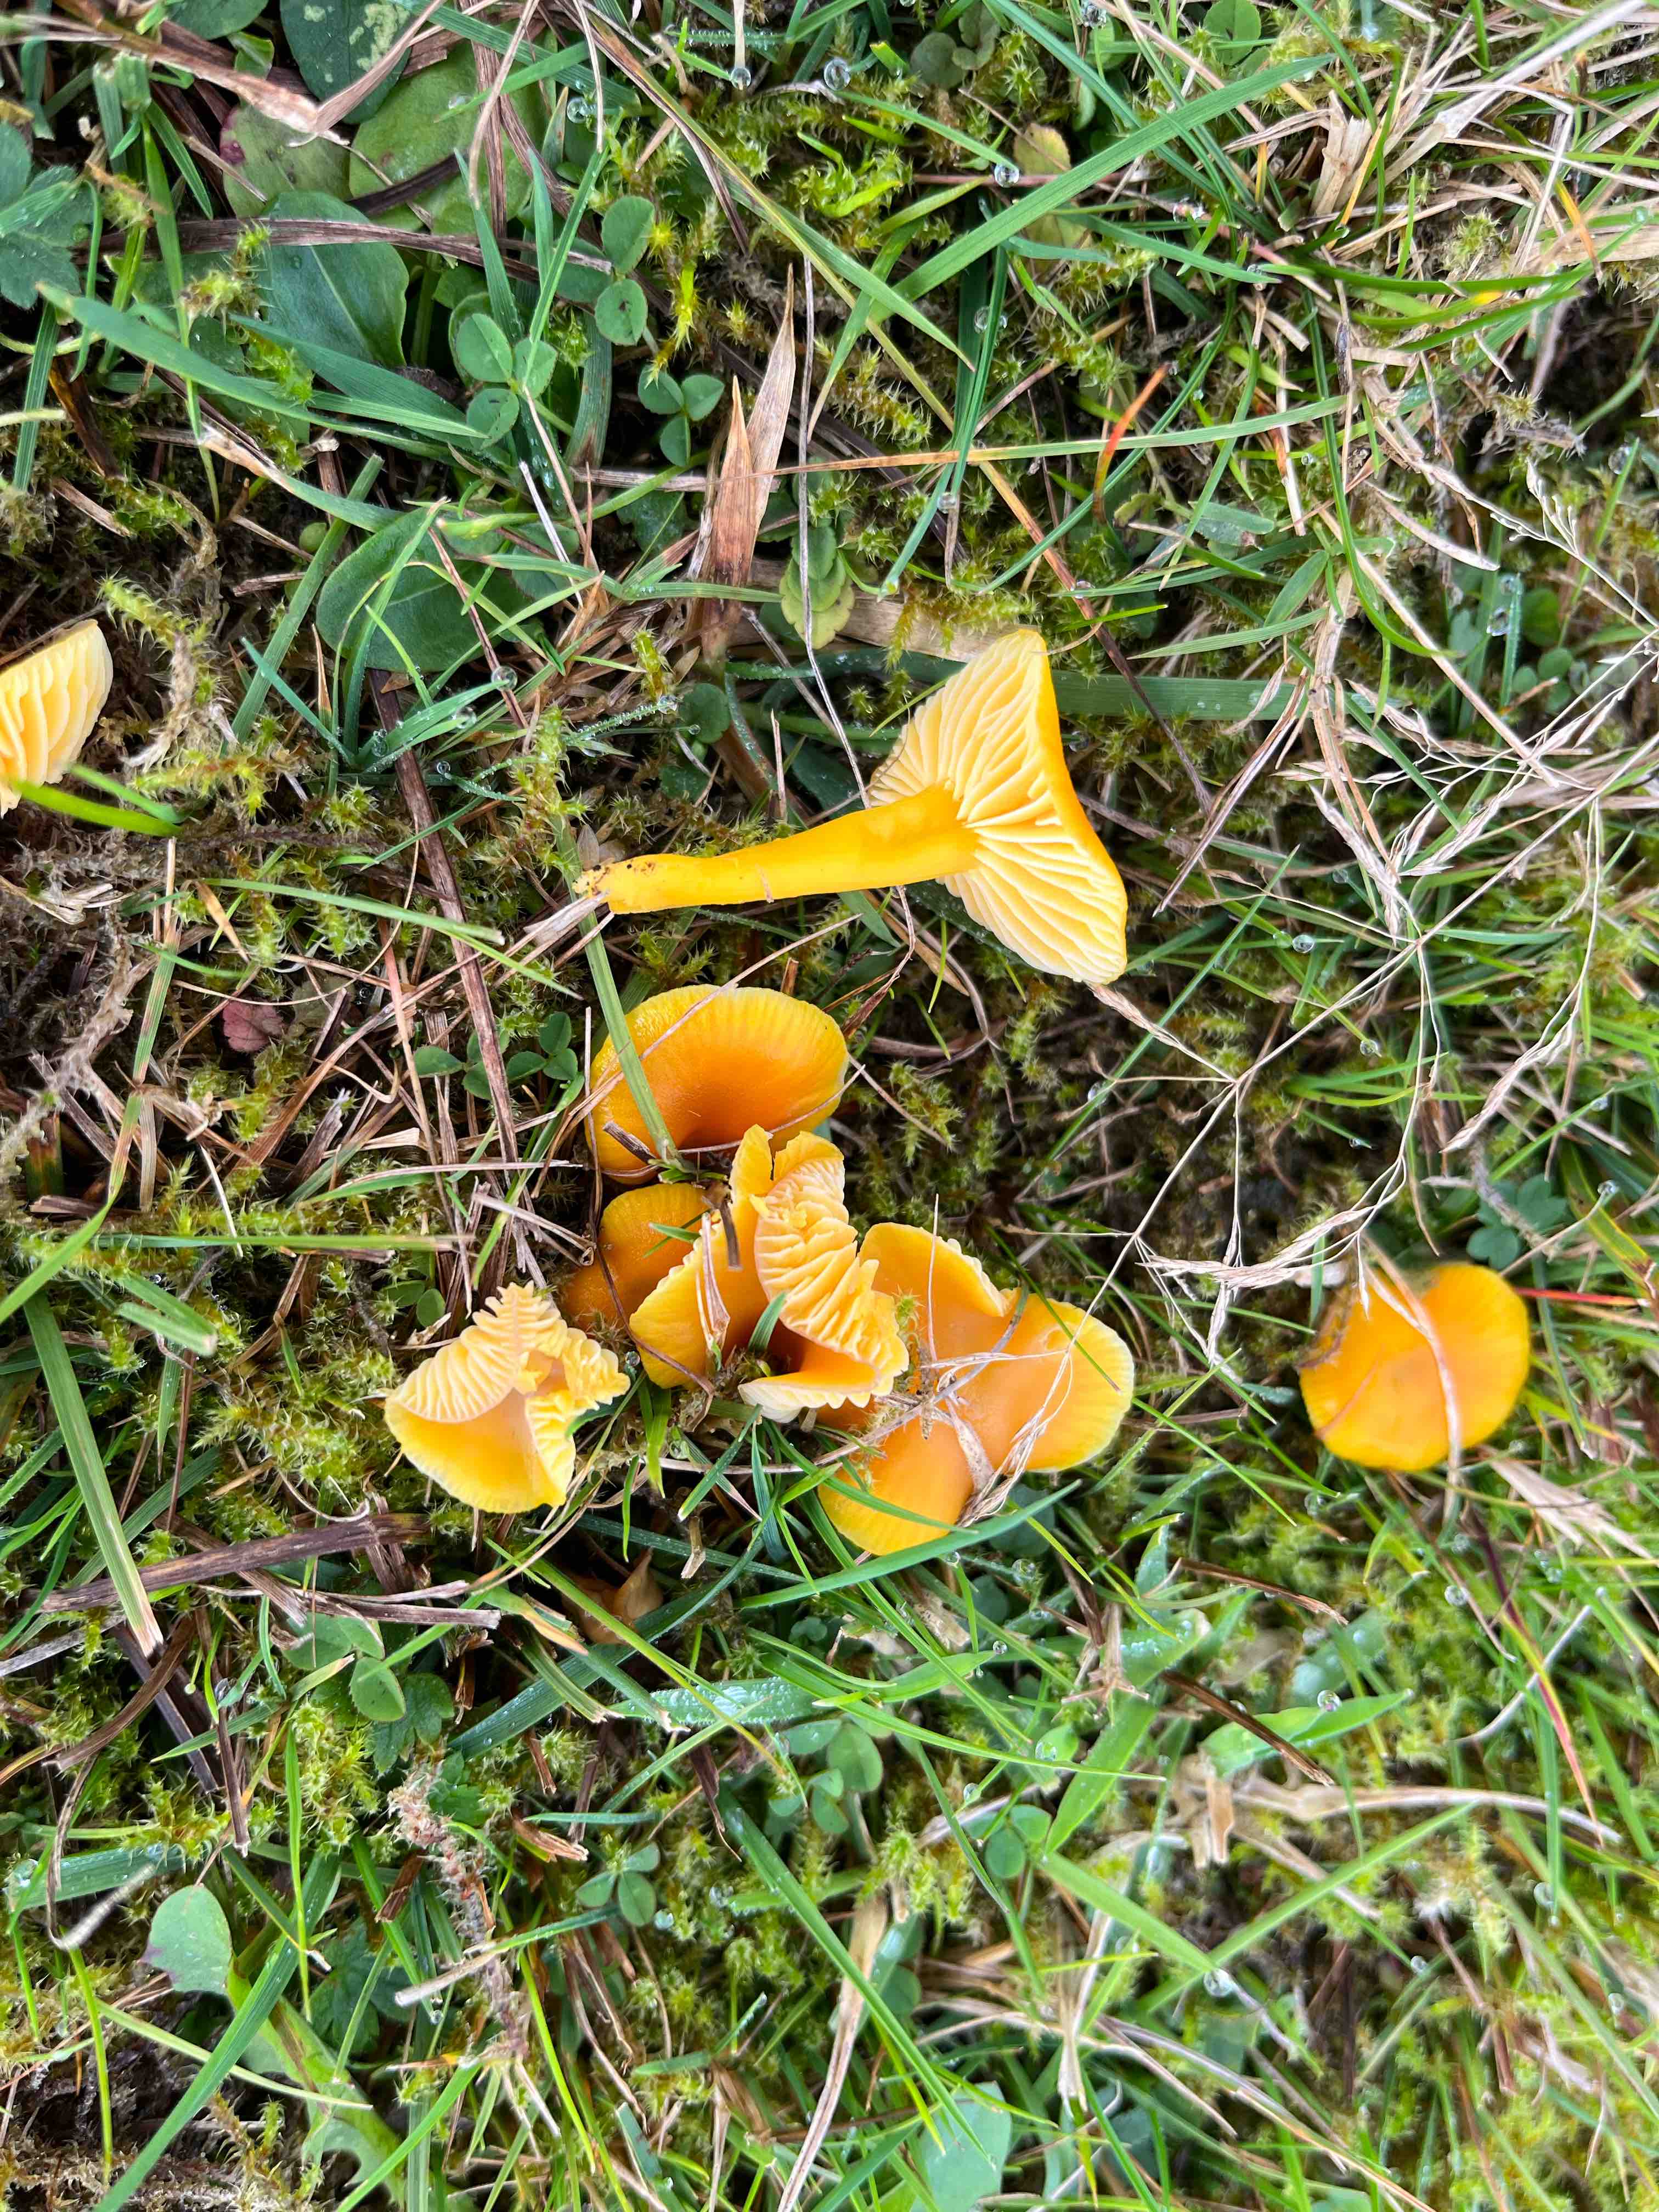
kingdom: Fungi
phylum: Basidiomycota
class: Agaricomycetes
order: Agaricales
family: Hygrophoraceae
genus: Hygrocybe
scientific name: Hygrocybe ceracea
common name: voksgul vokshat
